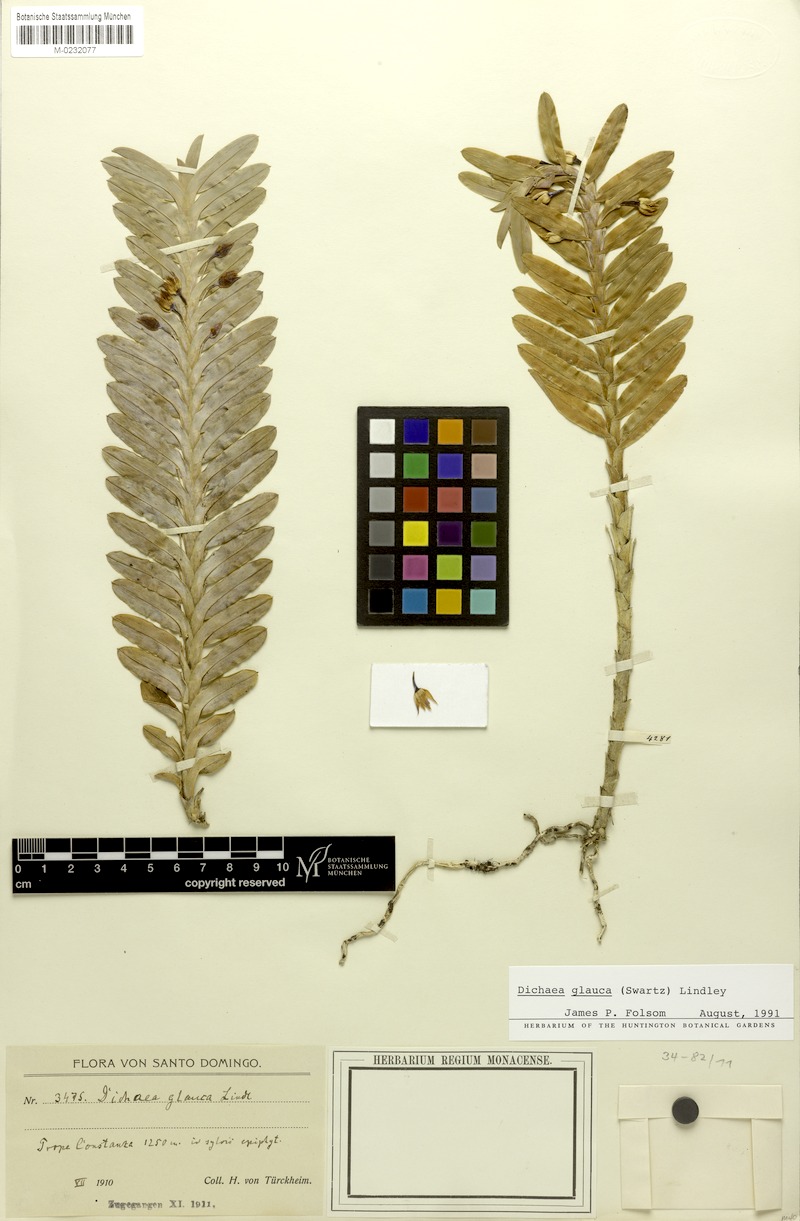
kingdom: Plantae
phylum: Tracheophyta
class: Liliopsida
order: Asparagales
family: Orchidaceae
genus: Dichaea
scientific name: Dichaea glauca
